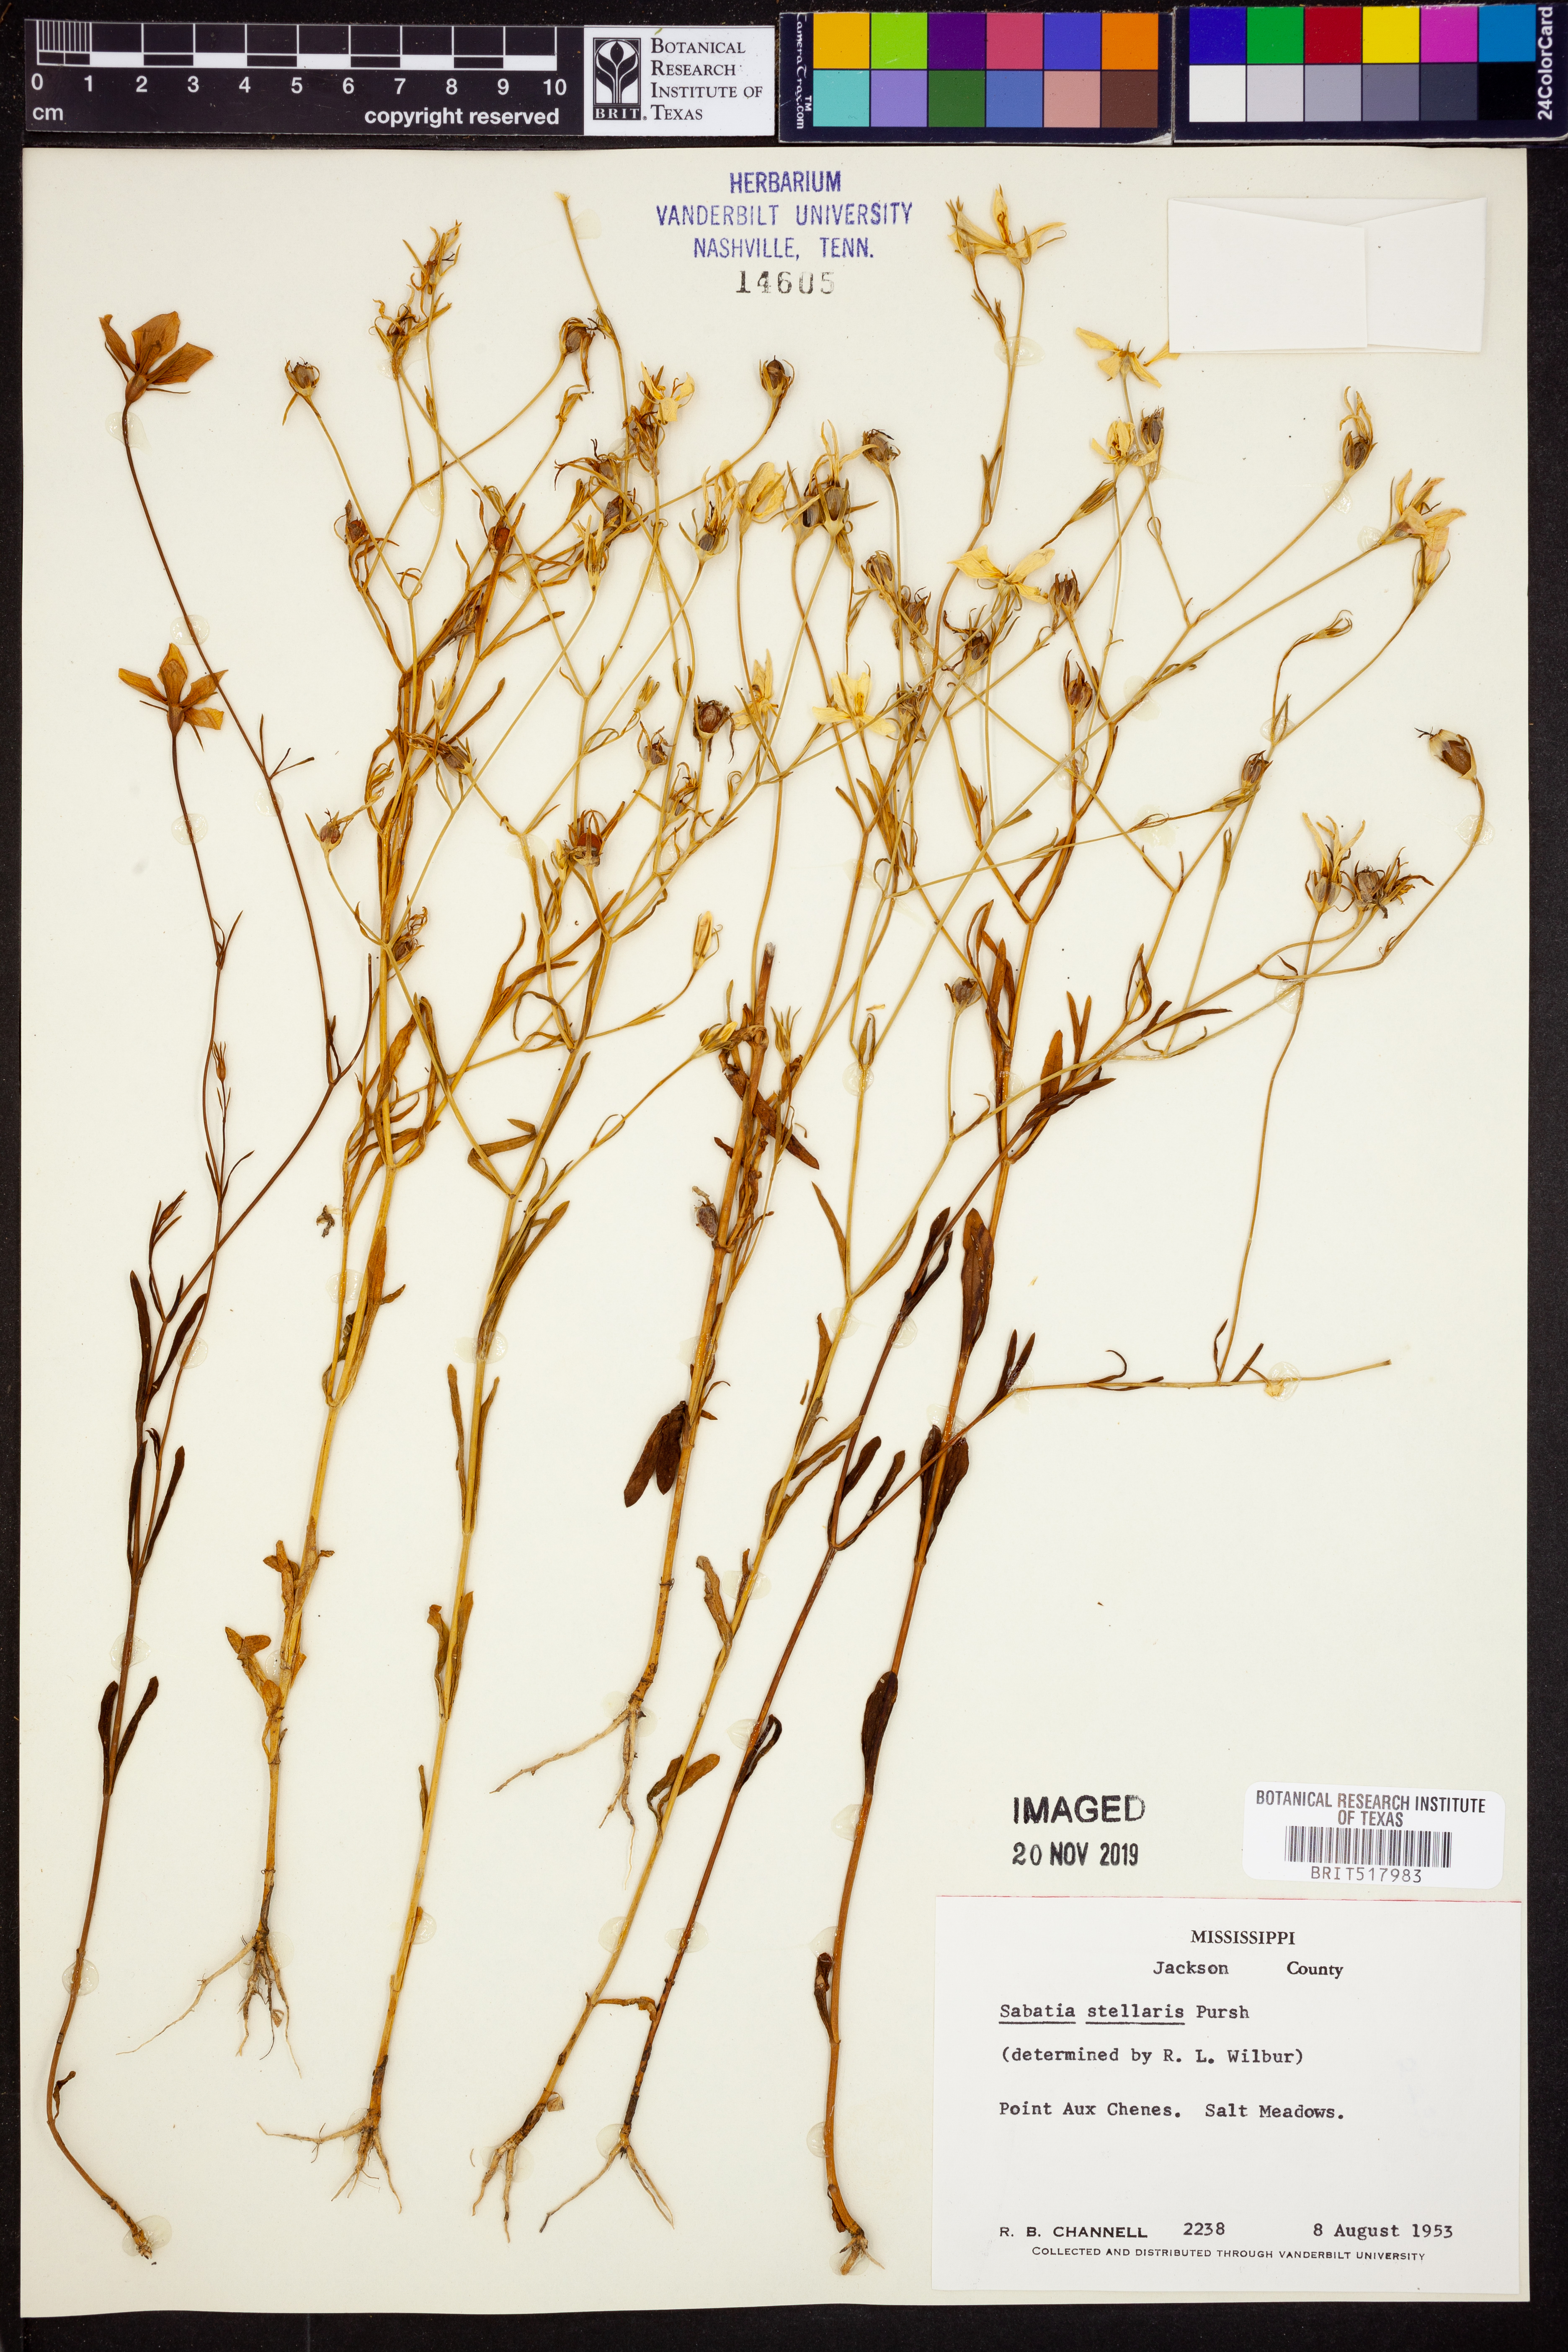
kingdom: Plantae
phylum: Tracheophyta
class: Magnoliopsida
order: Gentianales
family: Gentianaceae
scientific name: Gentianaceae
